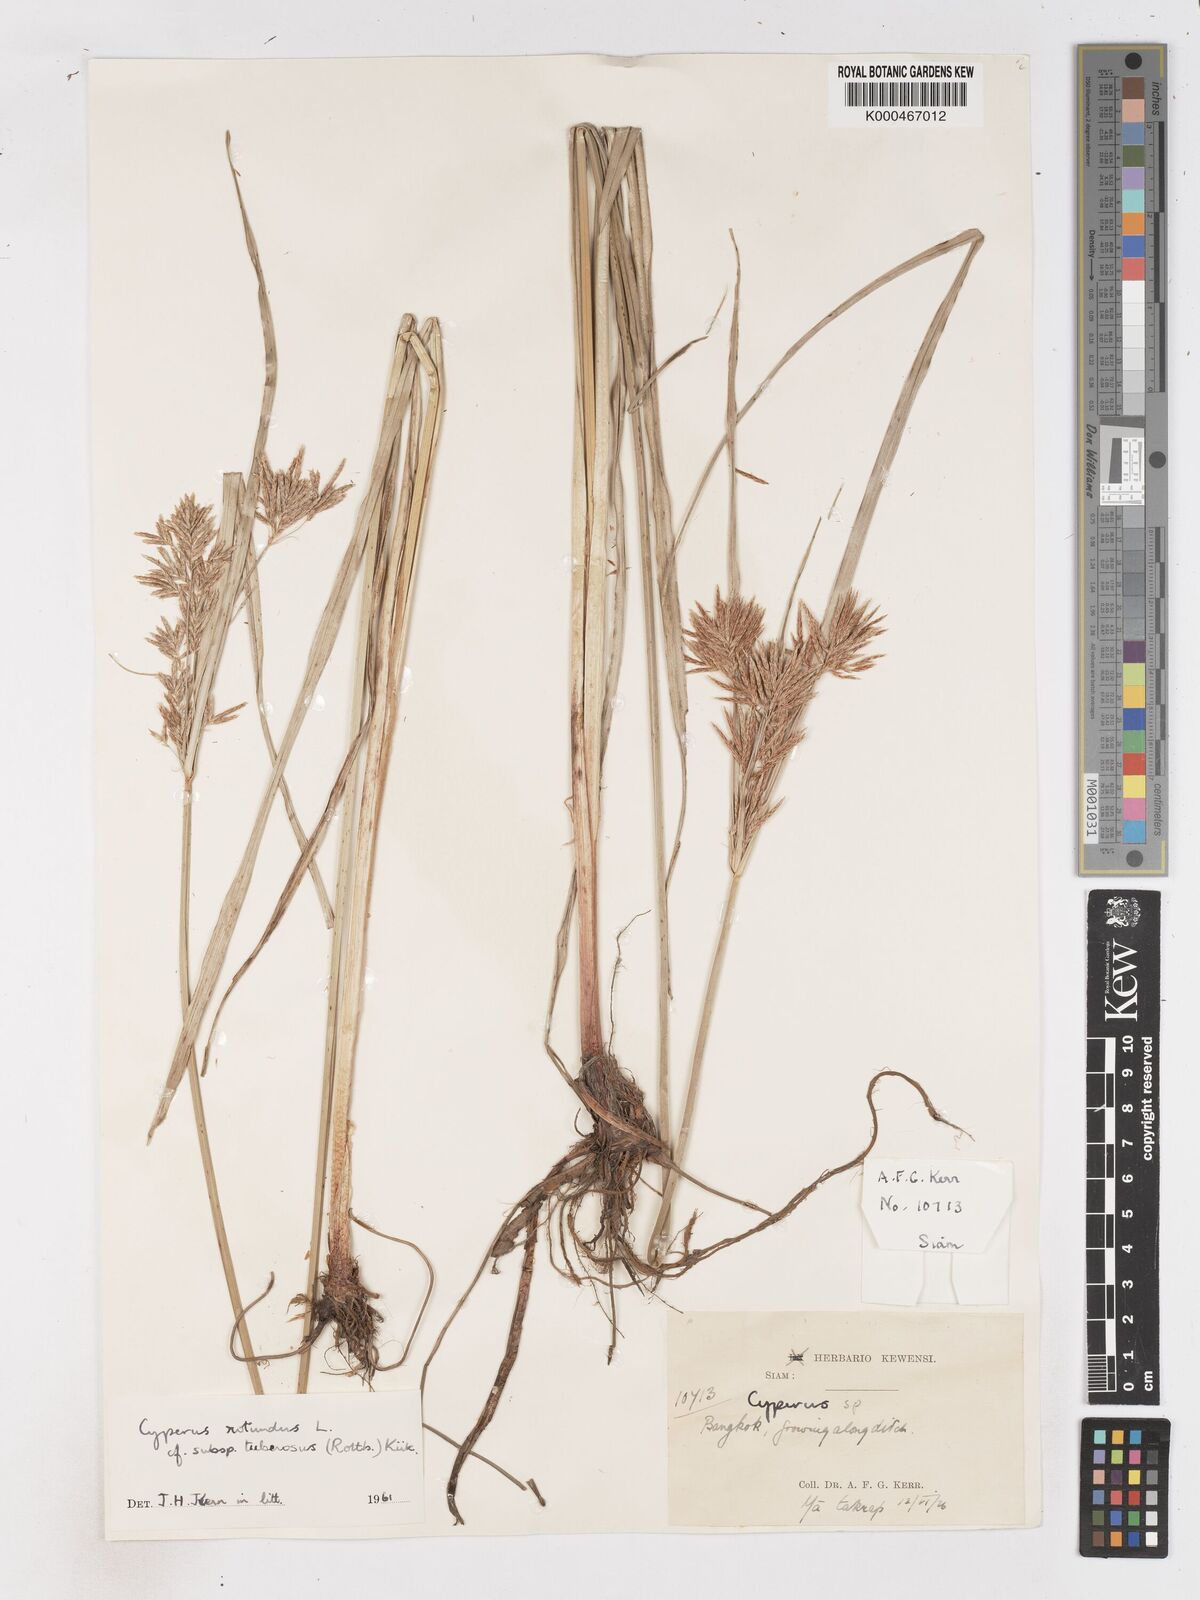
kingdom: Plantae
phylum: Tracheophyta
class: Liliopsida
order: Poales
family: Cyperaceae
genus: Cyperus
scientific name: Cyperus rotundus
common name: Nutgrass
